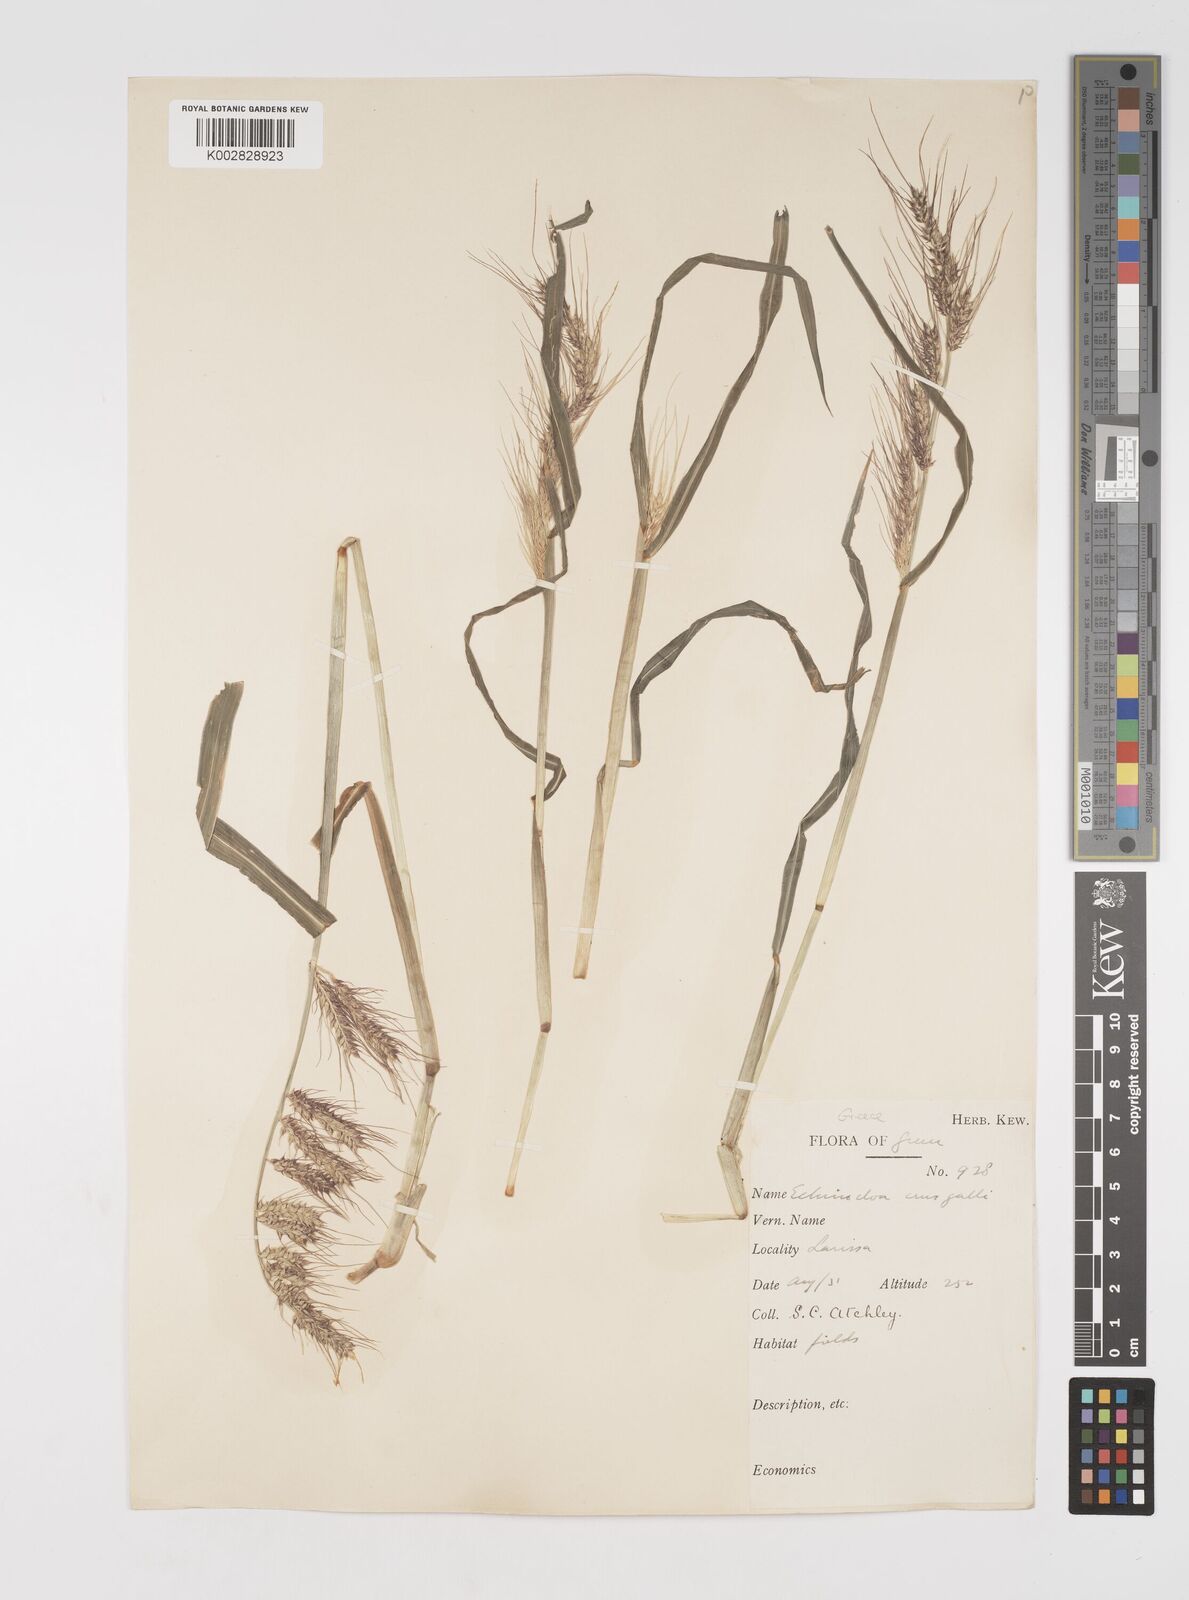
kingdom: Plantae
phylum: Tracheophyta
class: Liliopsida
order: Poales
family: Poaceae
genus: Echinochloa
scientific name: Echinochloa crus-galli
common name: Cockspur
